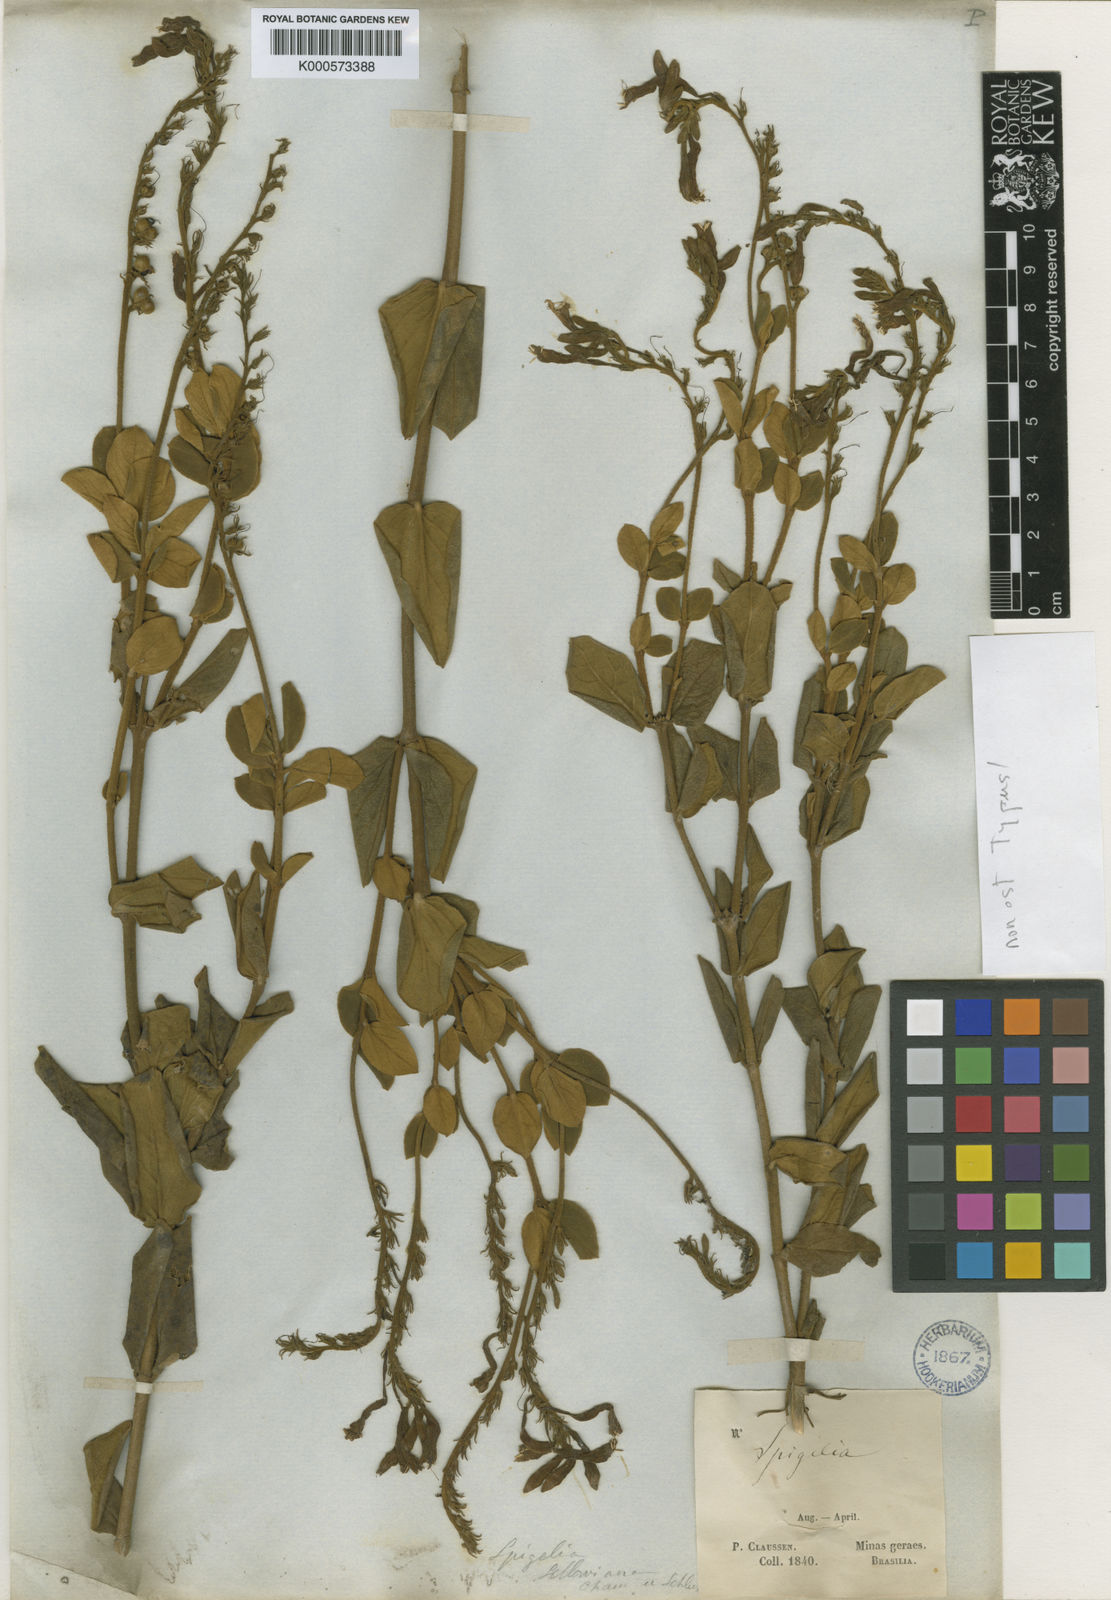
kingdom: Plantae
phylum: Tracheophyta
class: Magnoliopsida
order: Gentianales
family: Loganiaceae
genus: Spigelia
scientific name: Spigelia sellowiana
